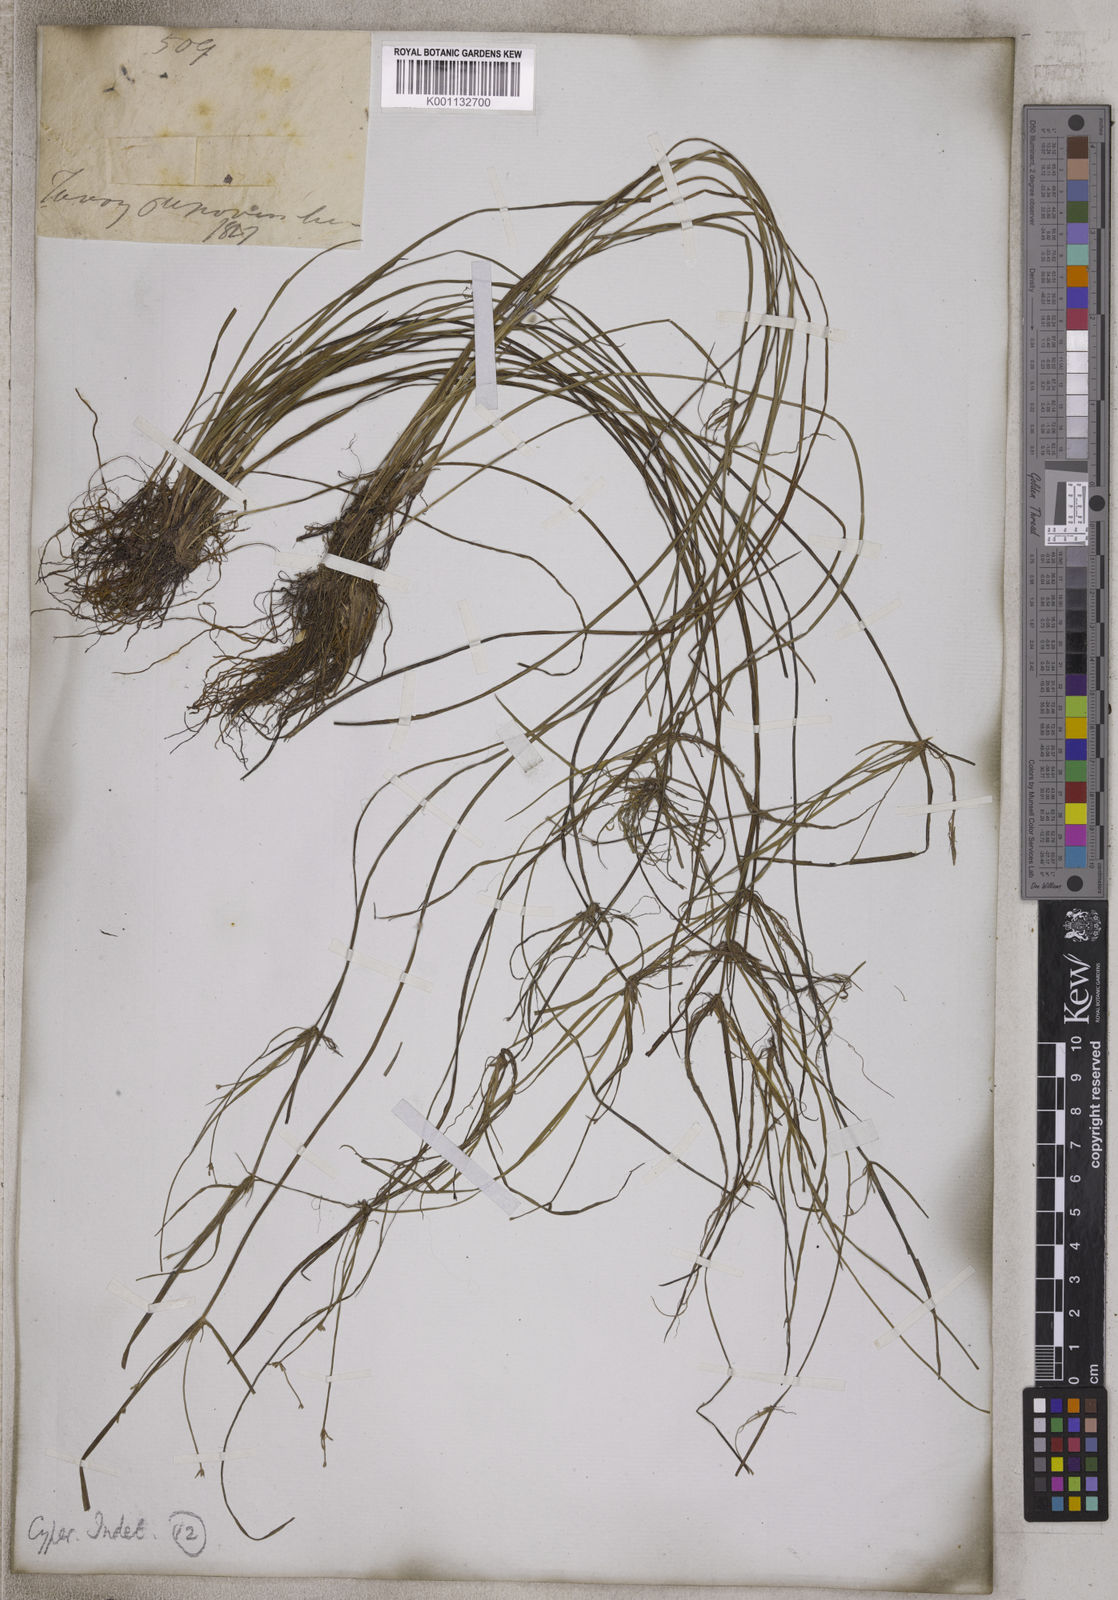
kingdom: Plantae
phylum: Tracheophyta
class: Liliopsida
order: Poales
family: Cyperaceae
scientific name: Cyperaceae
